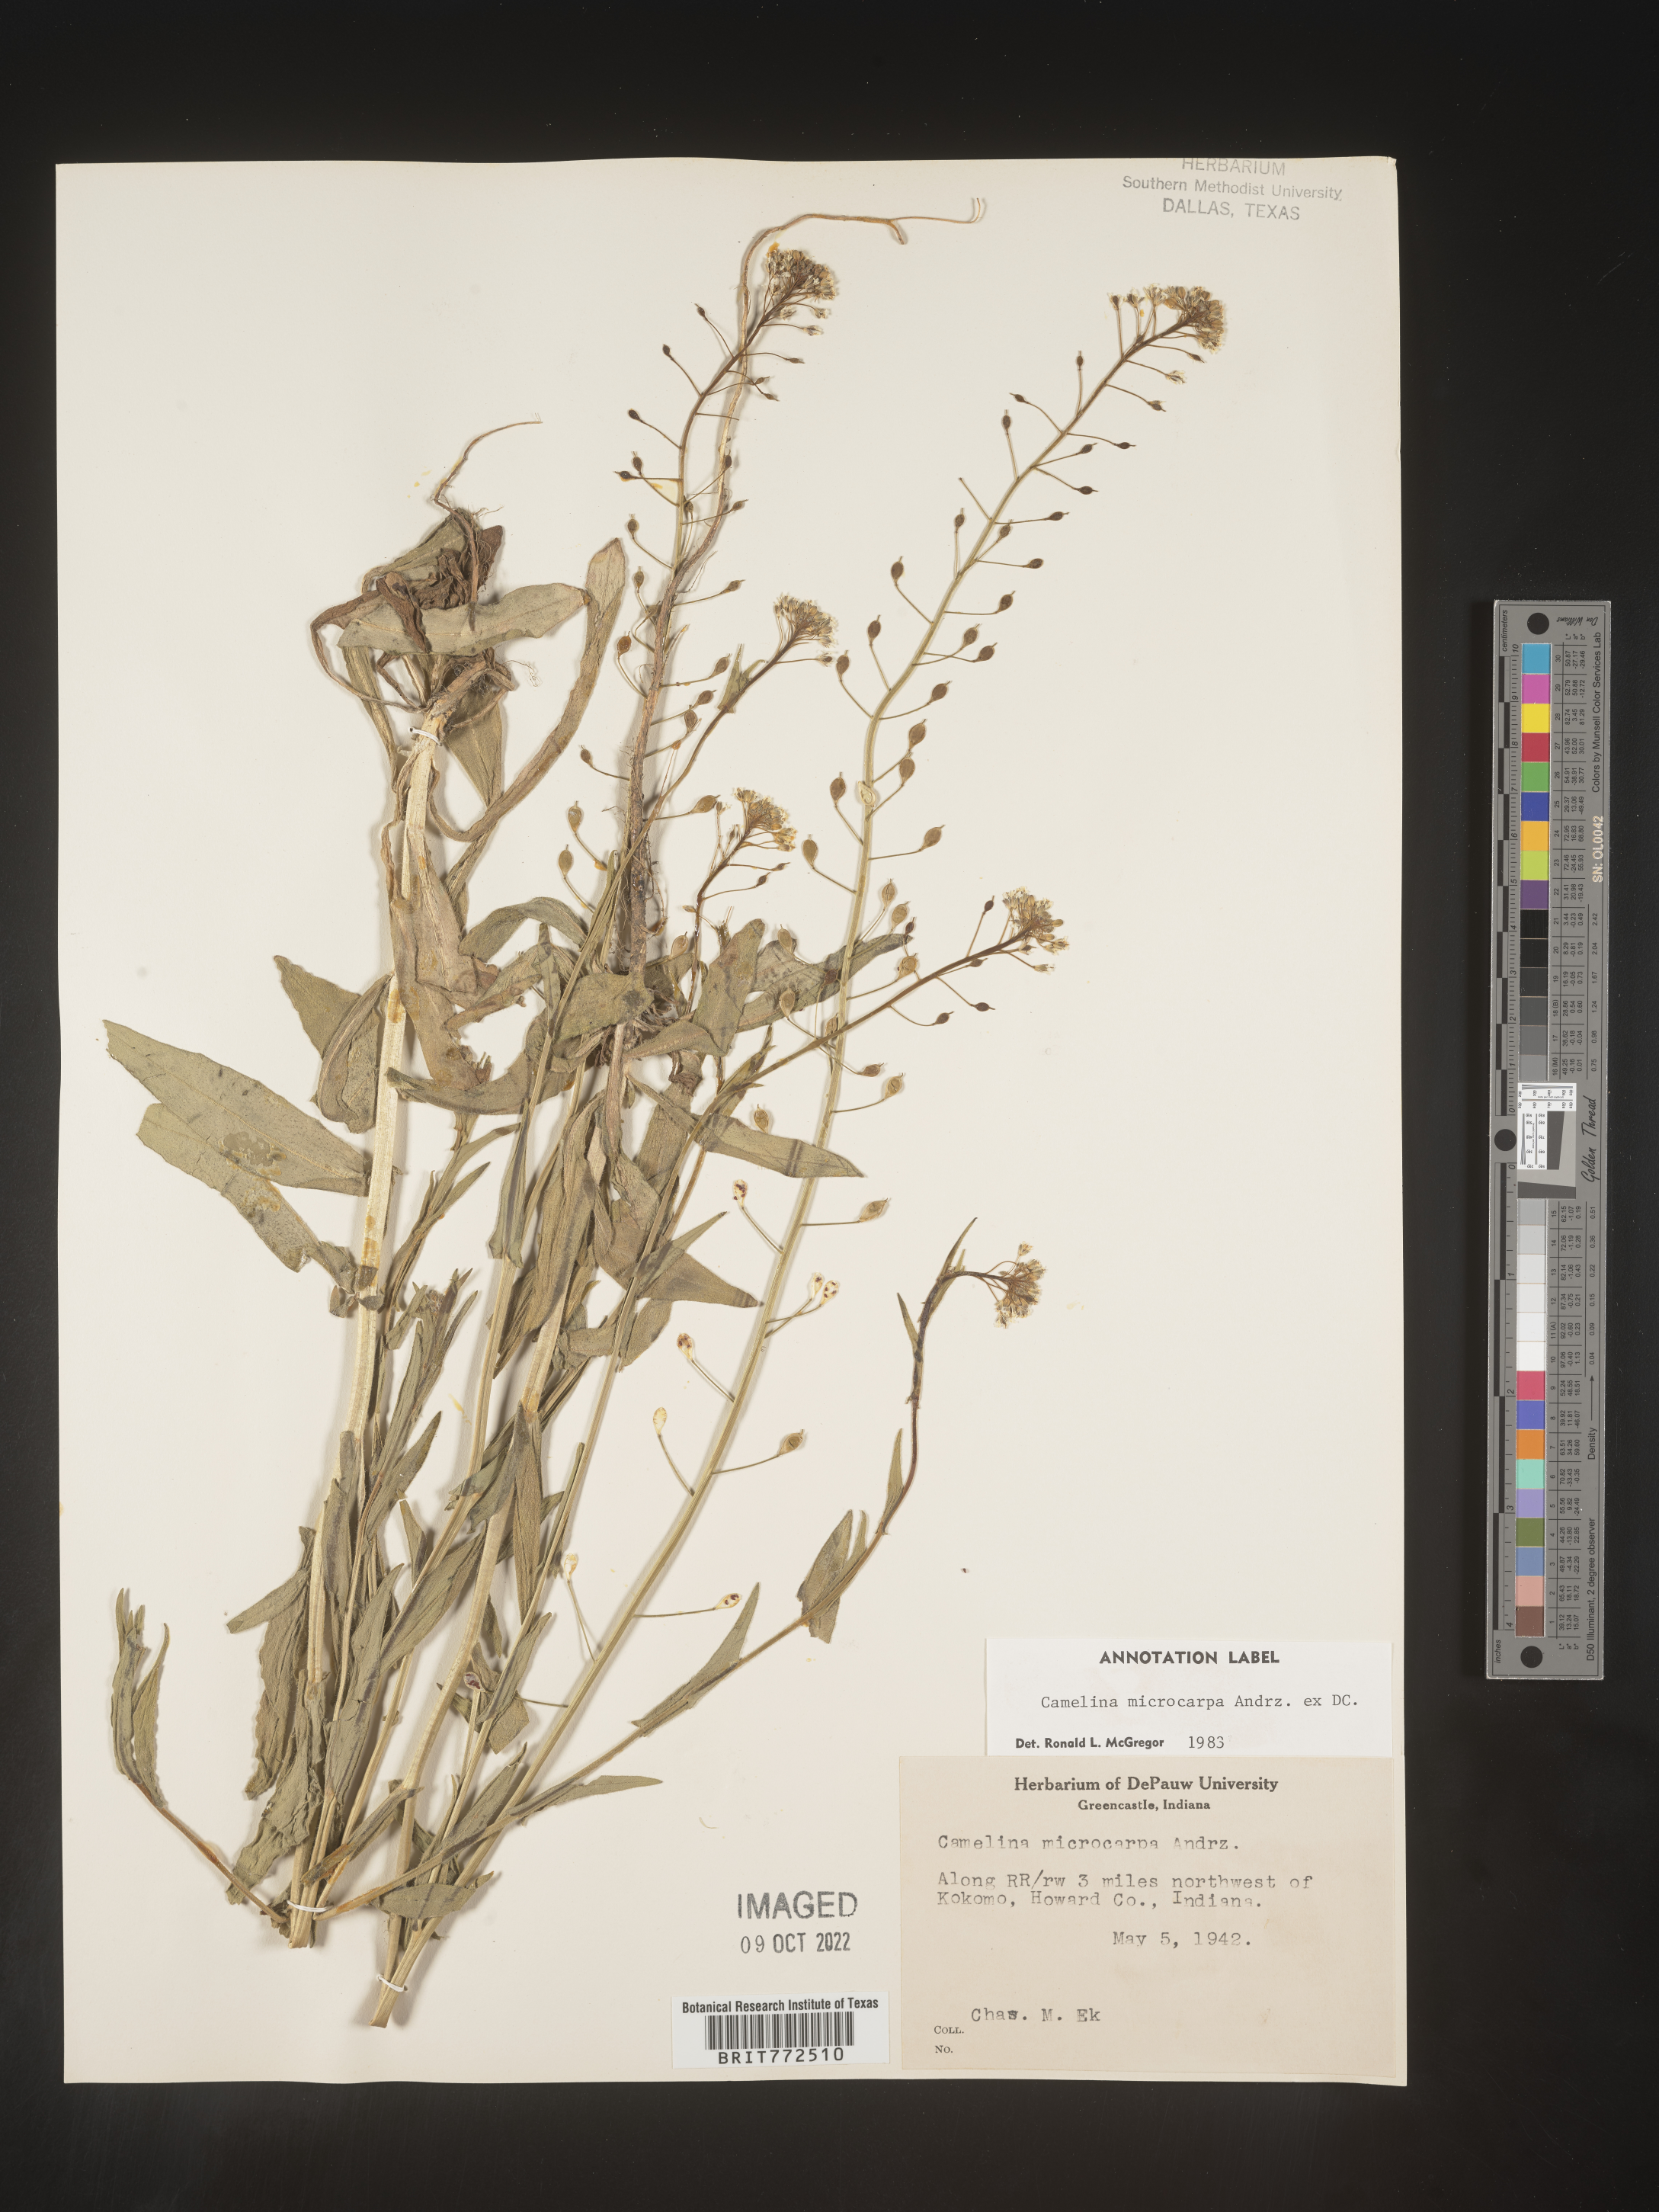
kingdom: Plantae
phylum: Tracheophyta
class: Magnoliopsida
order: Brassicales
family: Brassicaceae
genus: Camelina
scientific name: Camelina microcarpa
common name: Lesser gold-of-pleasure
